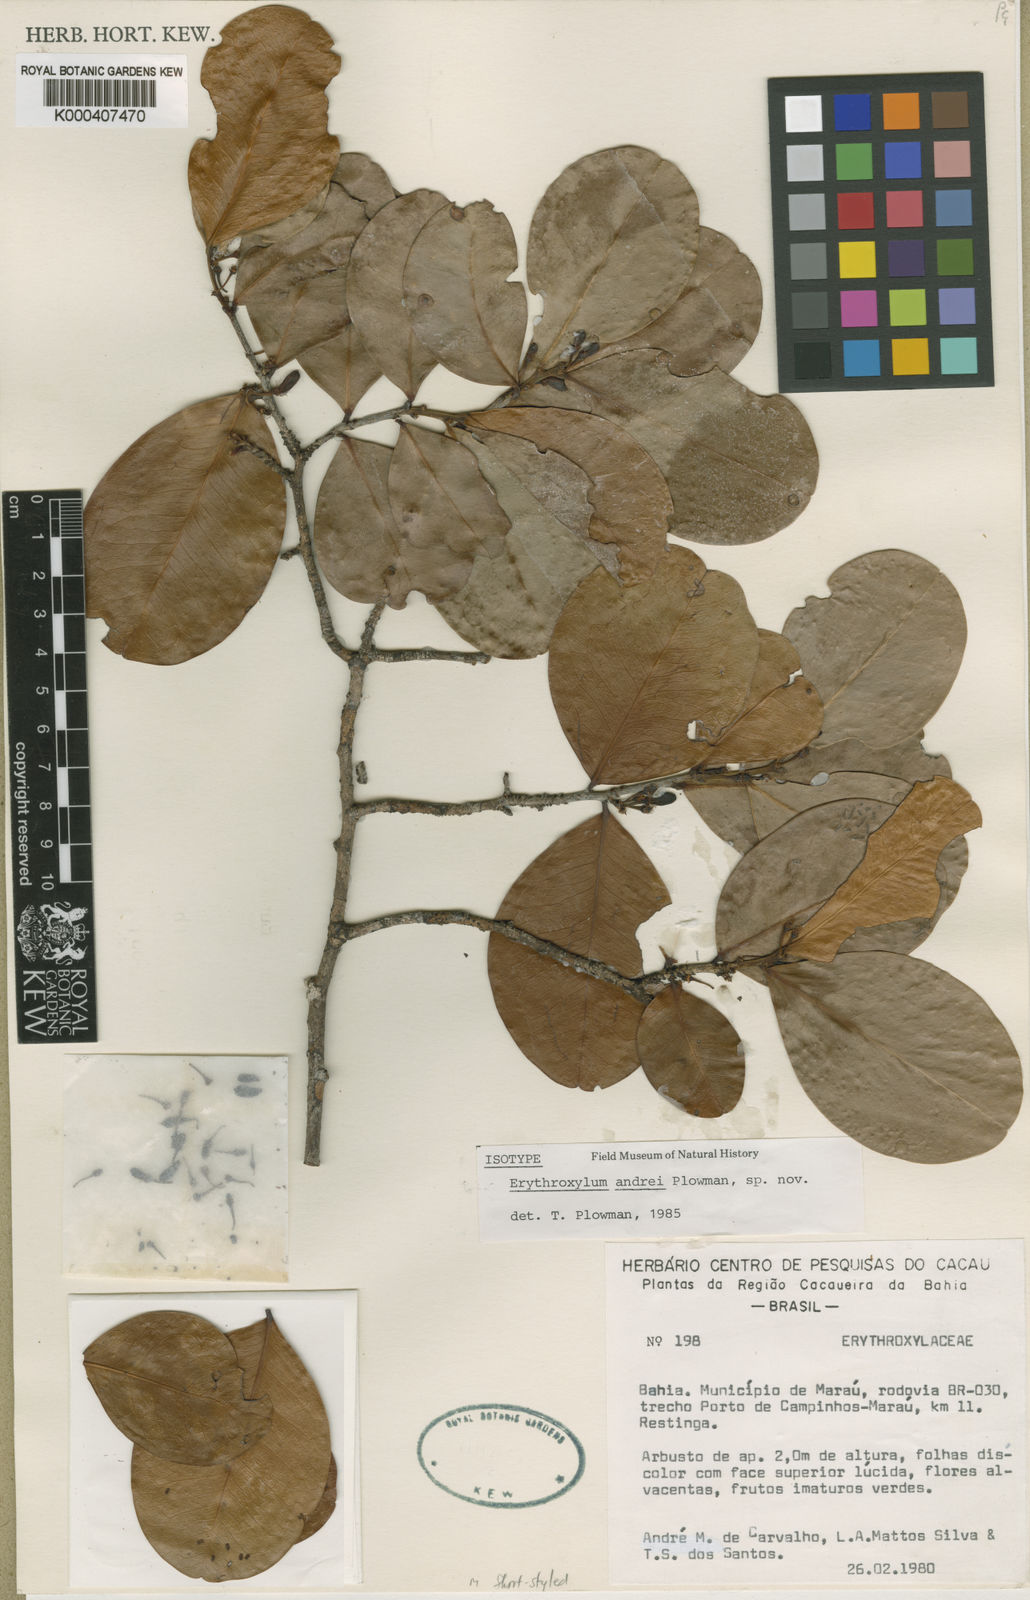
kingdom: Plantae
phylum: Tracheophyta
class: Magnoliopsida
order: Malpighiales
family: Erythroxylaceae
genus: Erythroxylum
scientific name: Erythroxylum andrei
